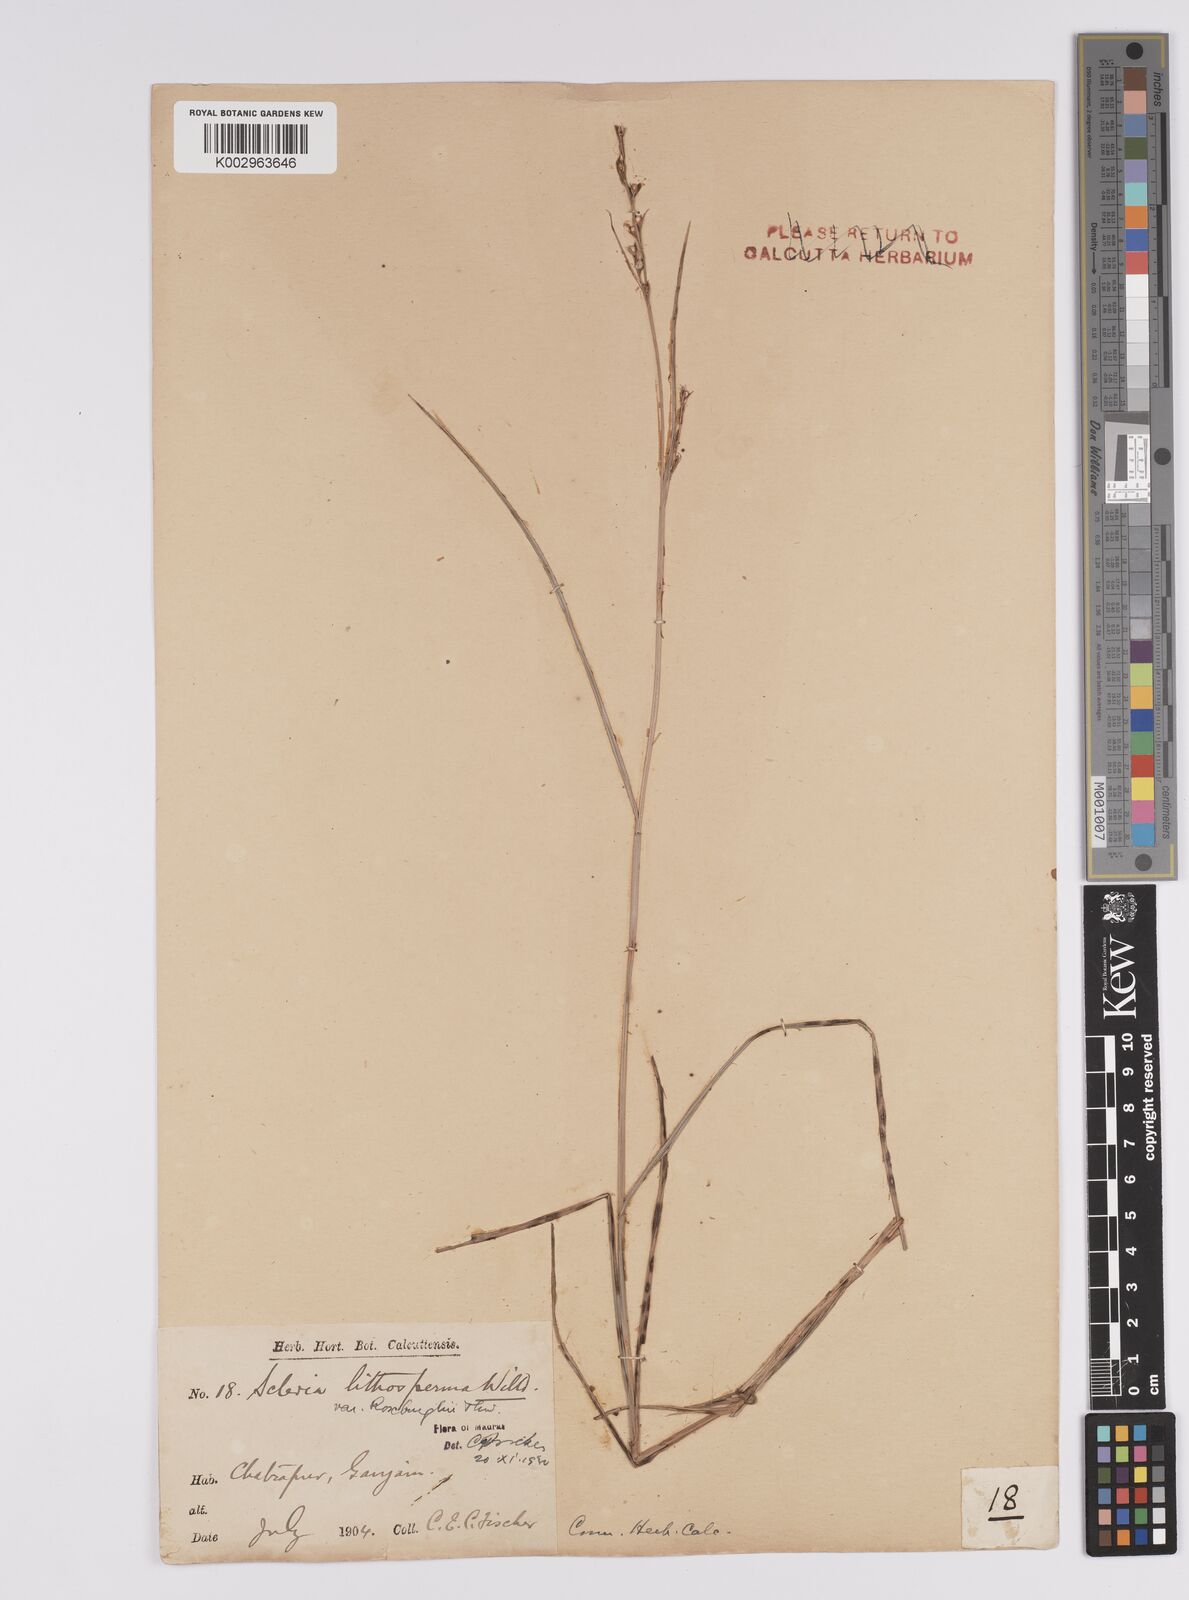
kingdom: Plantae
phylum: Tracheophyta
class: Liliopsida
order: Poales
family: Cyperaceae
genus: Scleria
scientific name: Scleria lithosperma
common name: Florida keys nut-rush
